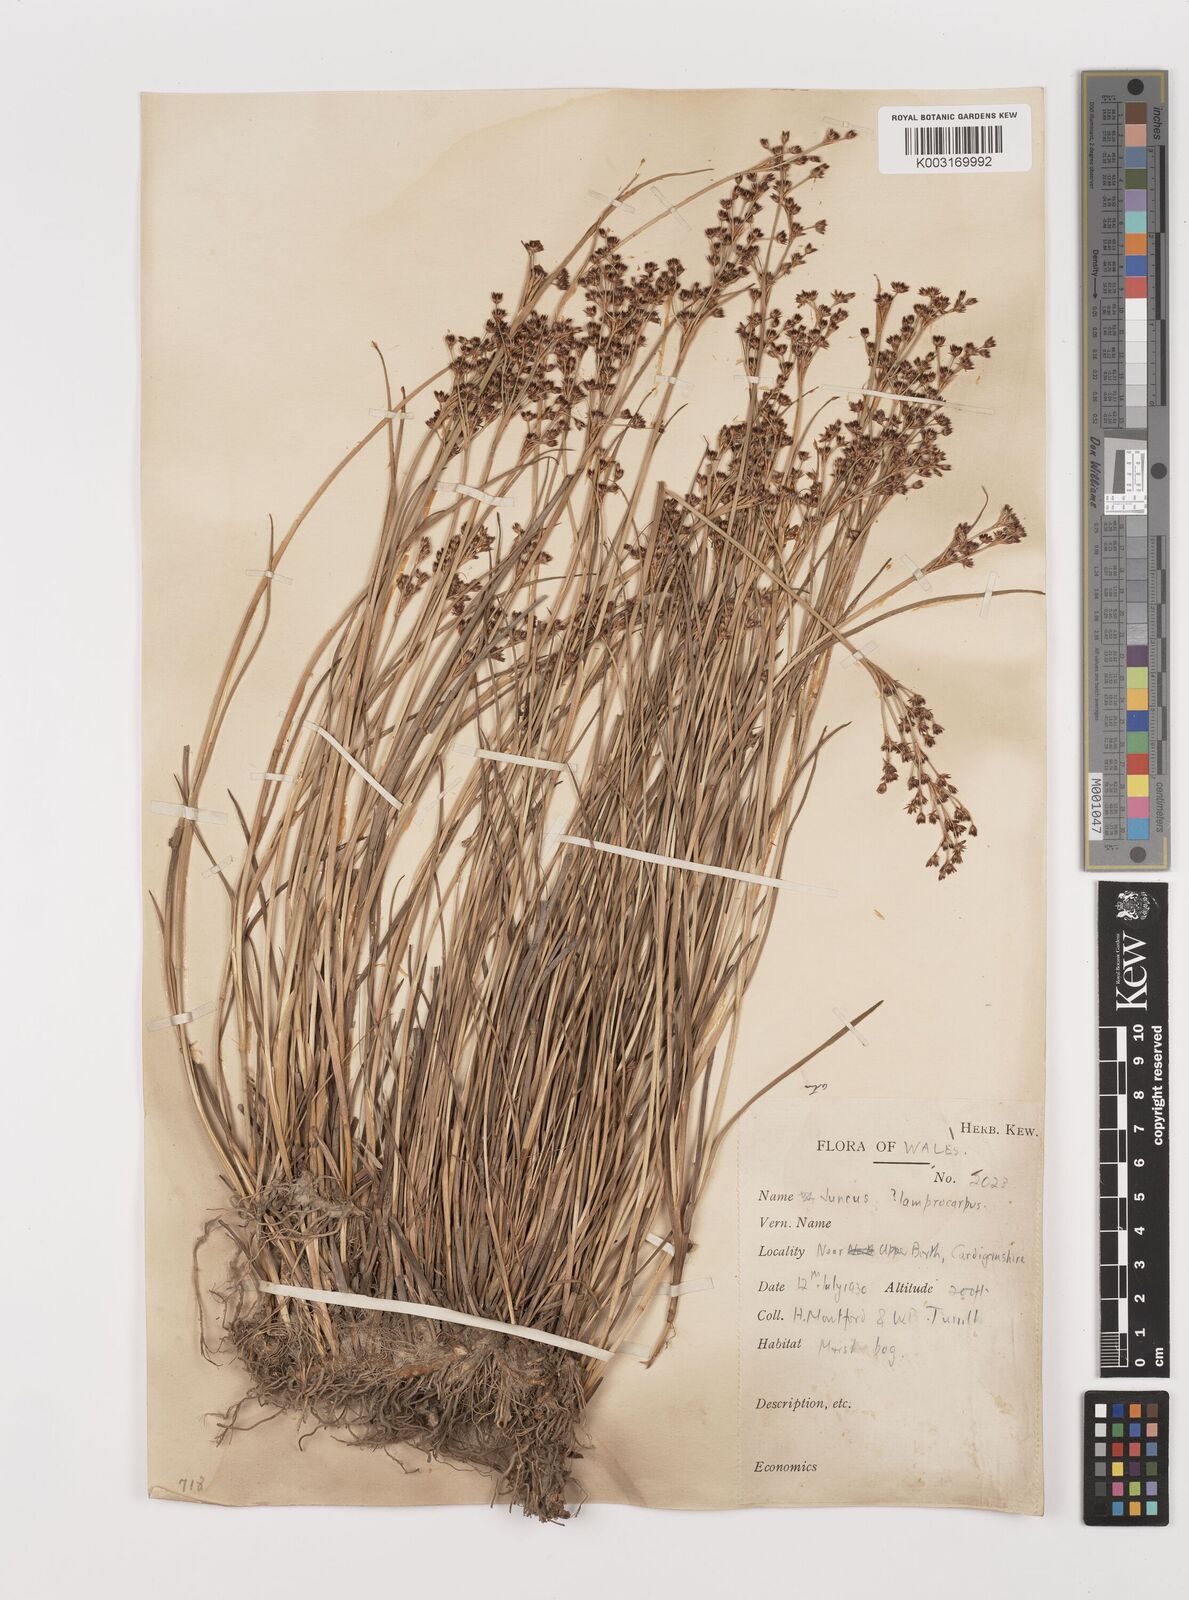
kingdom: Plantae
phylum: Tracheophyta
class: Liliopsida
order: Poales
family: Juncaceae
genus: Juncus
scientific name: Juncus articulatus
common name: Jointed rush
